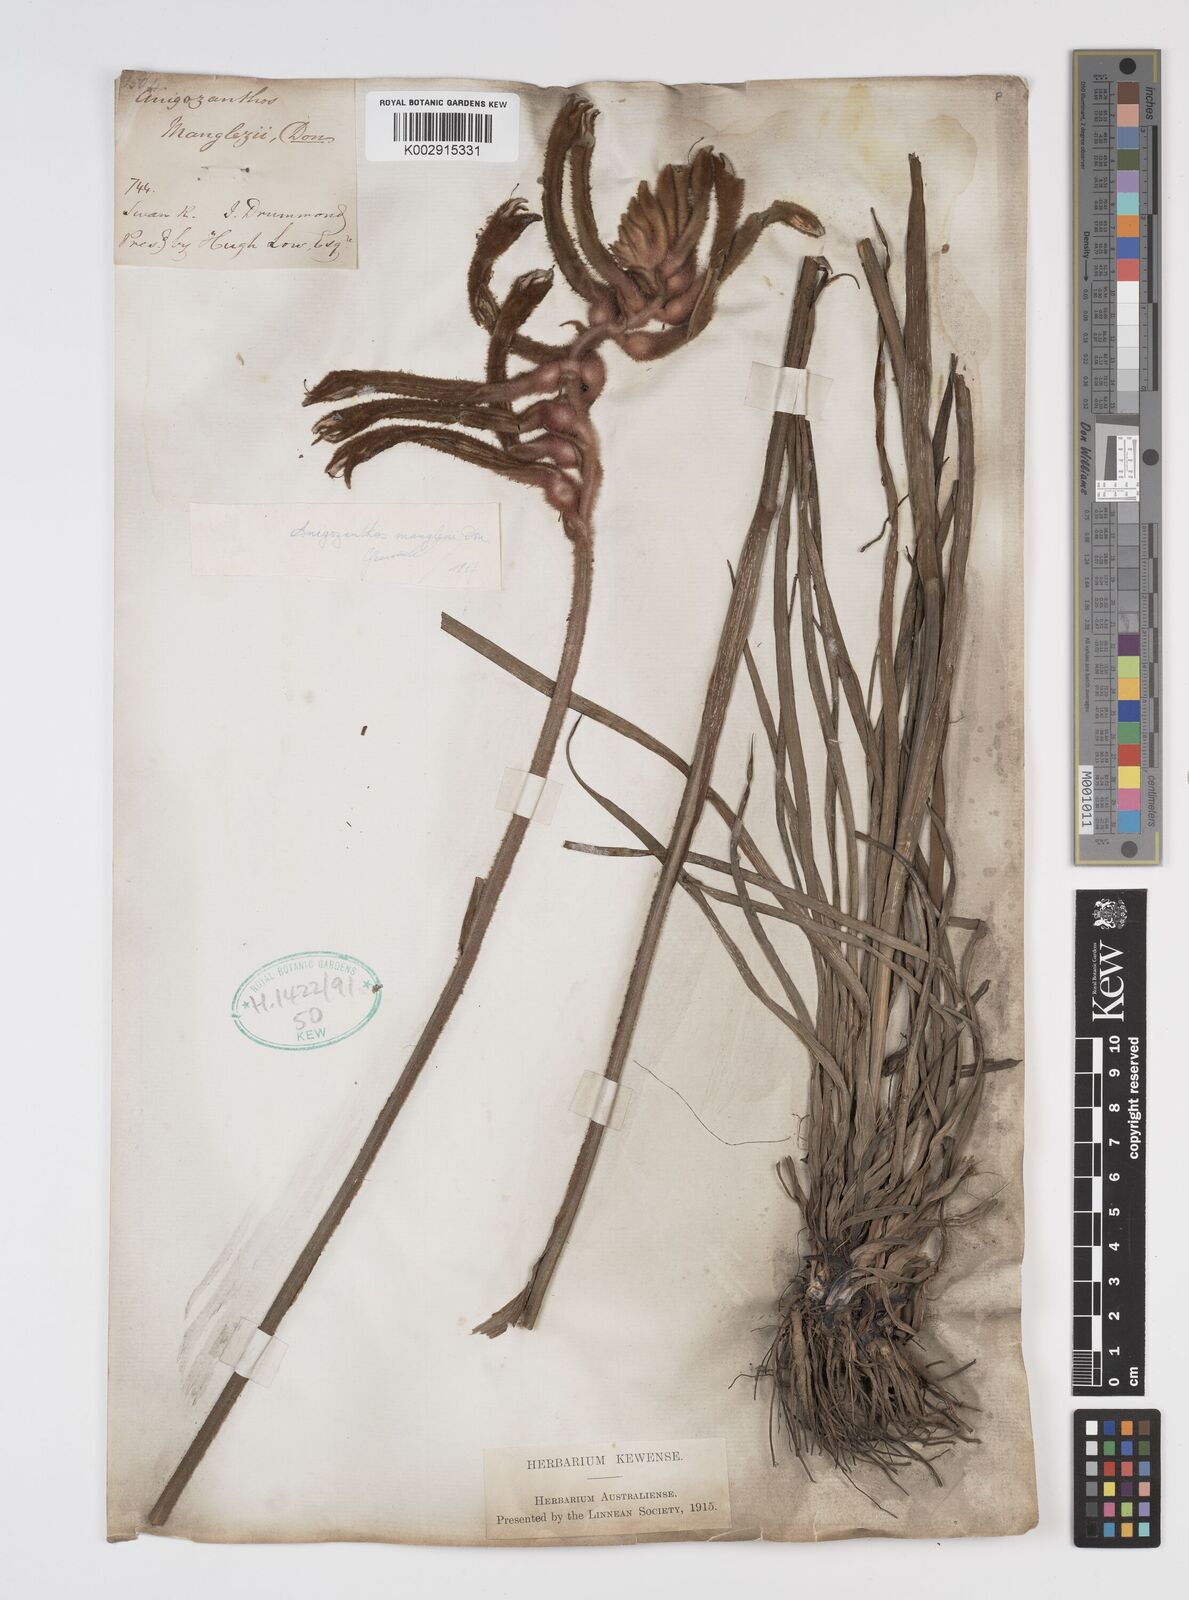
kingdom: Plantae
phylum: Tracheophyta
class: Liliopsida
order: Commelinales
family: Haemodoraceae
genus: Anigozanthos
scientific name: Anigozanthos manglesii
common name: Mangles's kangaroo-paw
